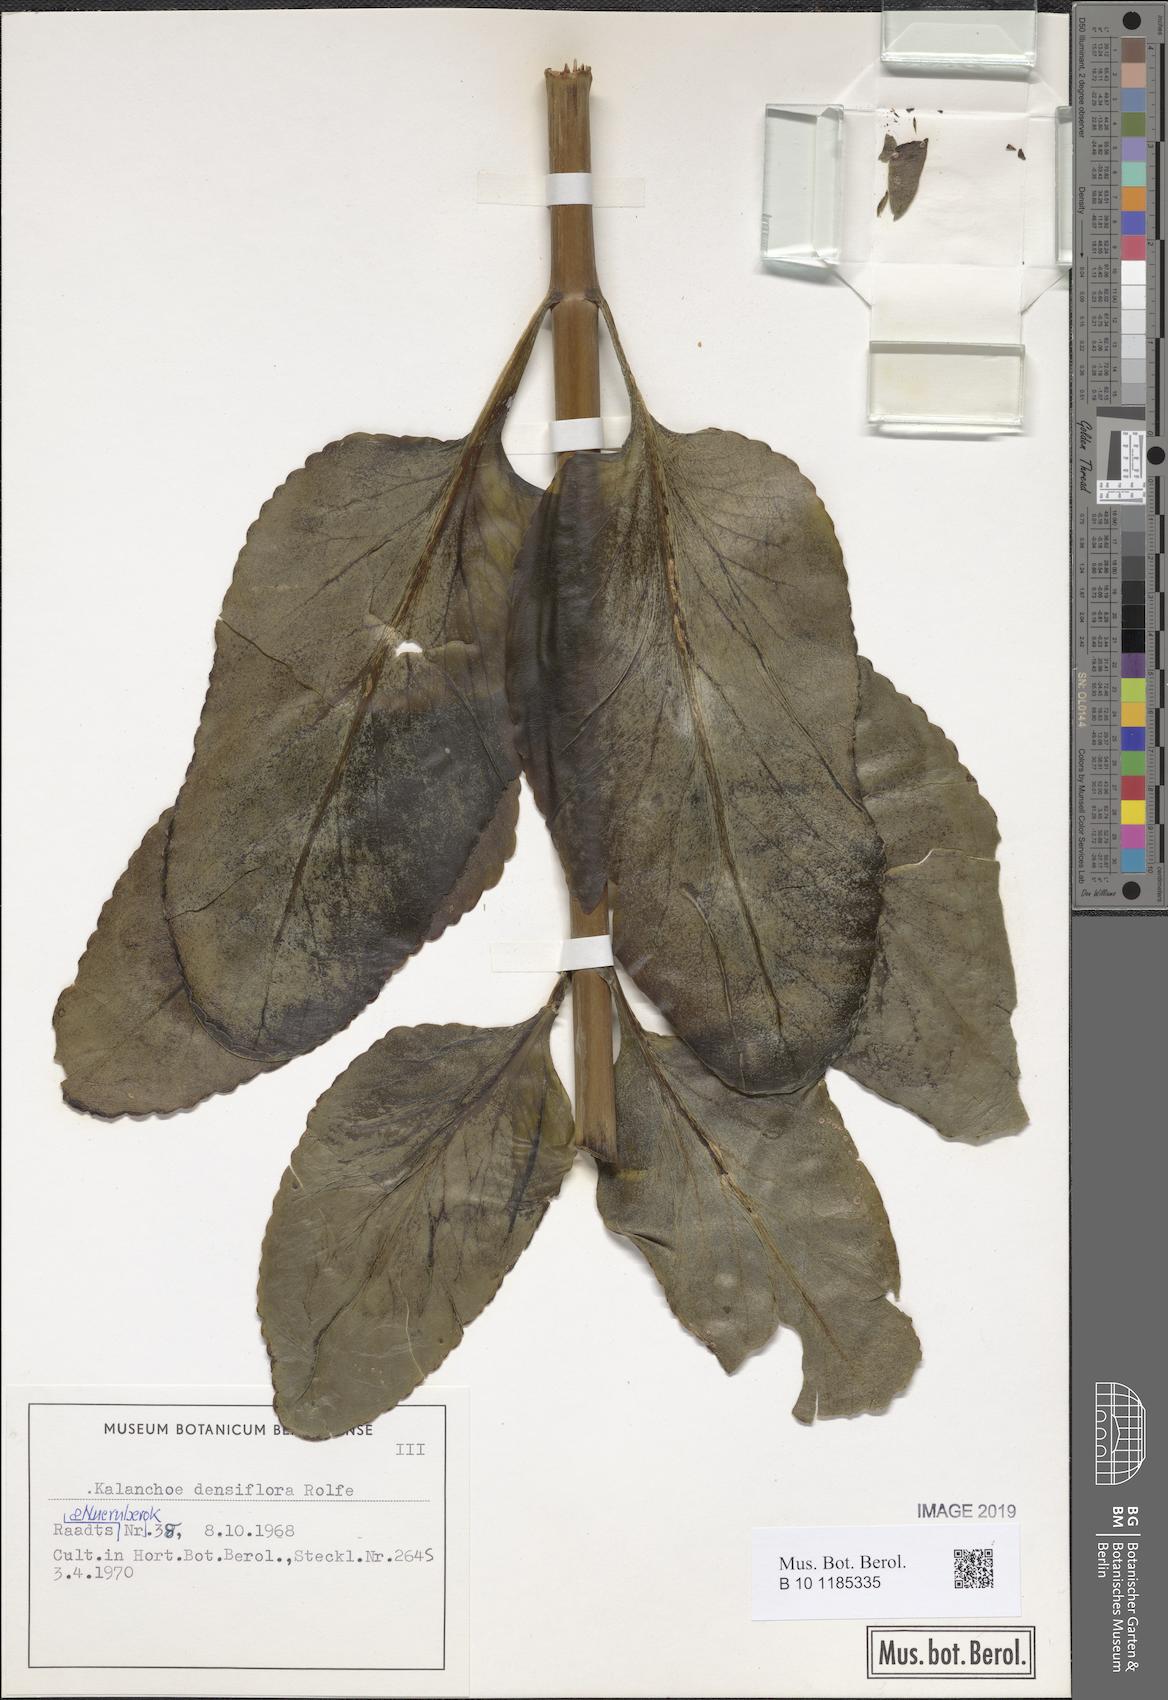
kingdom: Plantae
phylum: Tracheophyta
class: Magnoliopsida
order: Saxifragales
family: Crassulaceae
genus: Kalanchoe
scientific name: Kalanchoe densiflora
